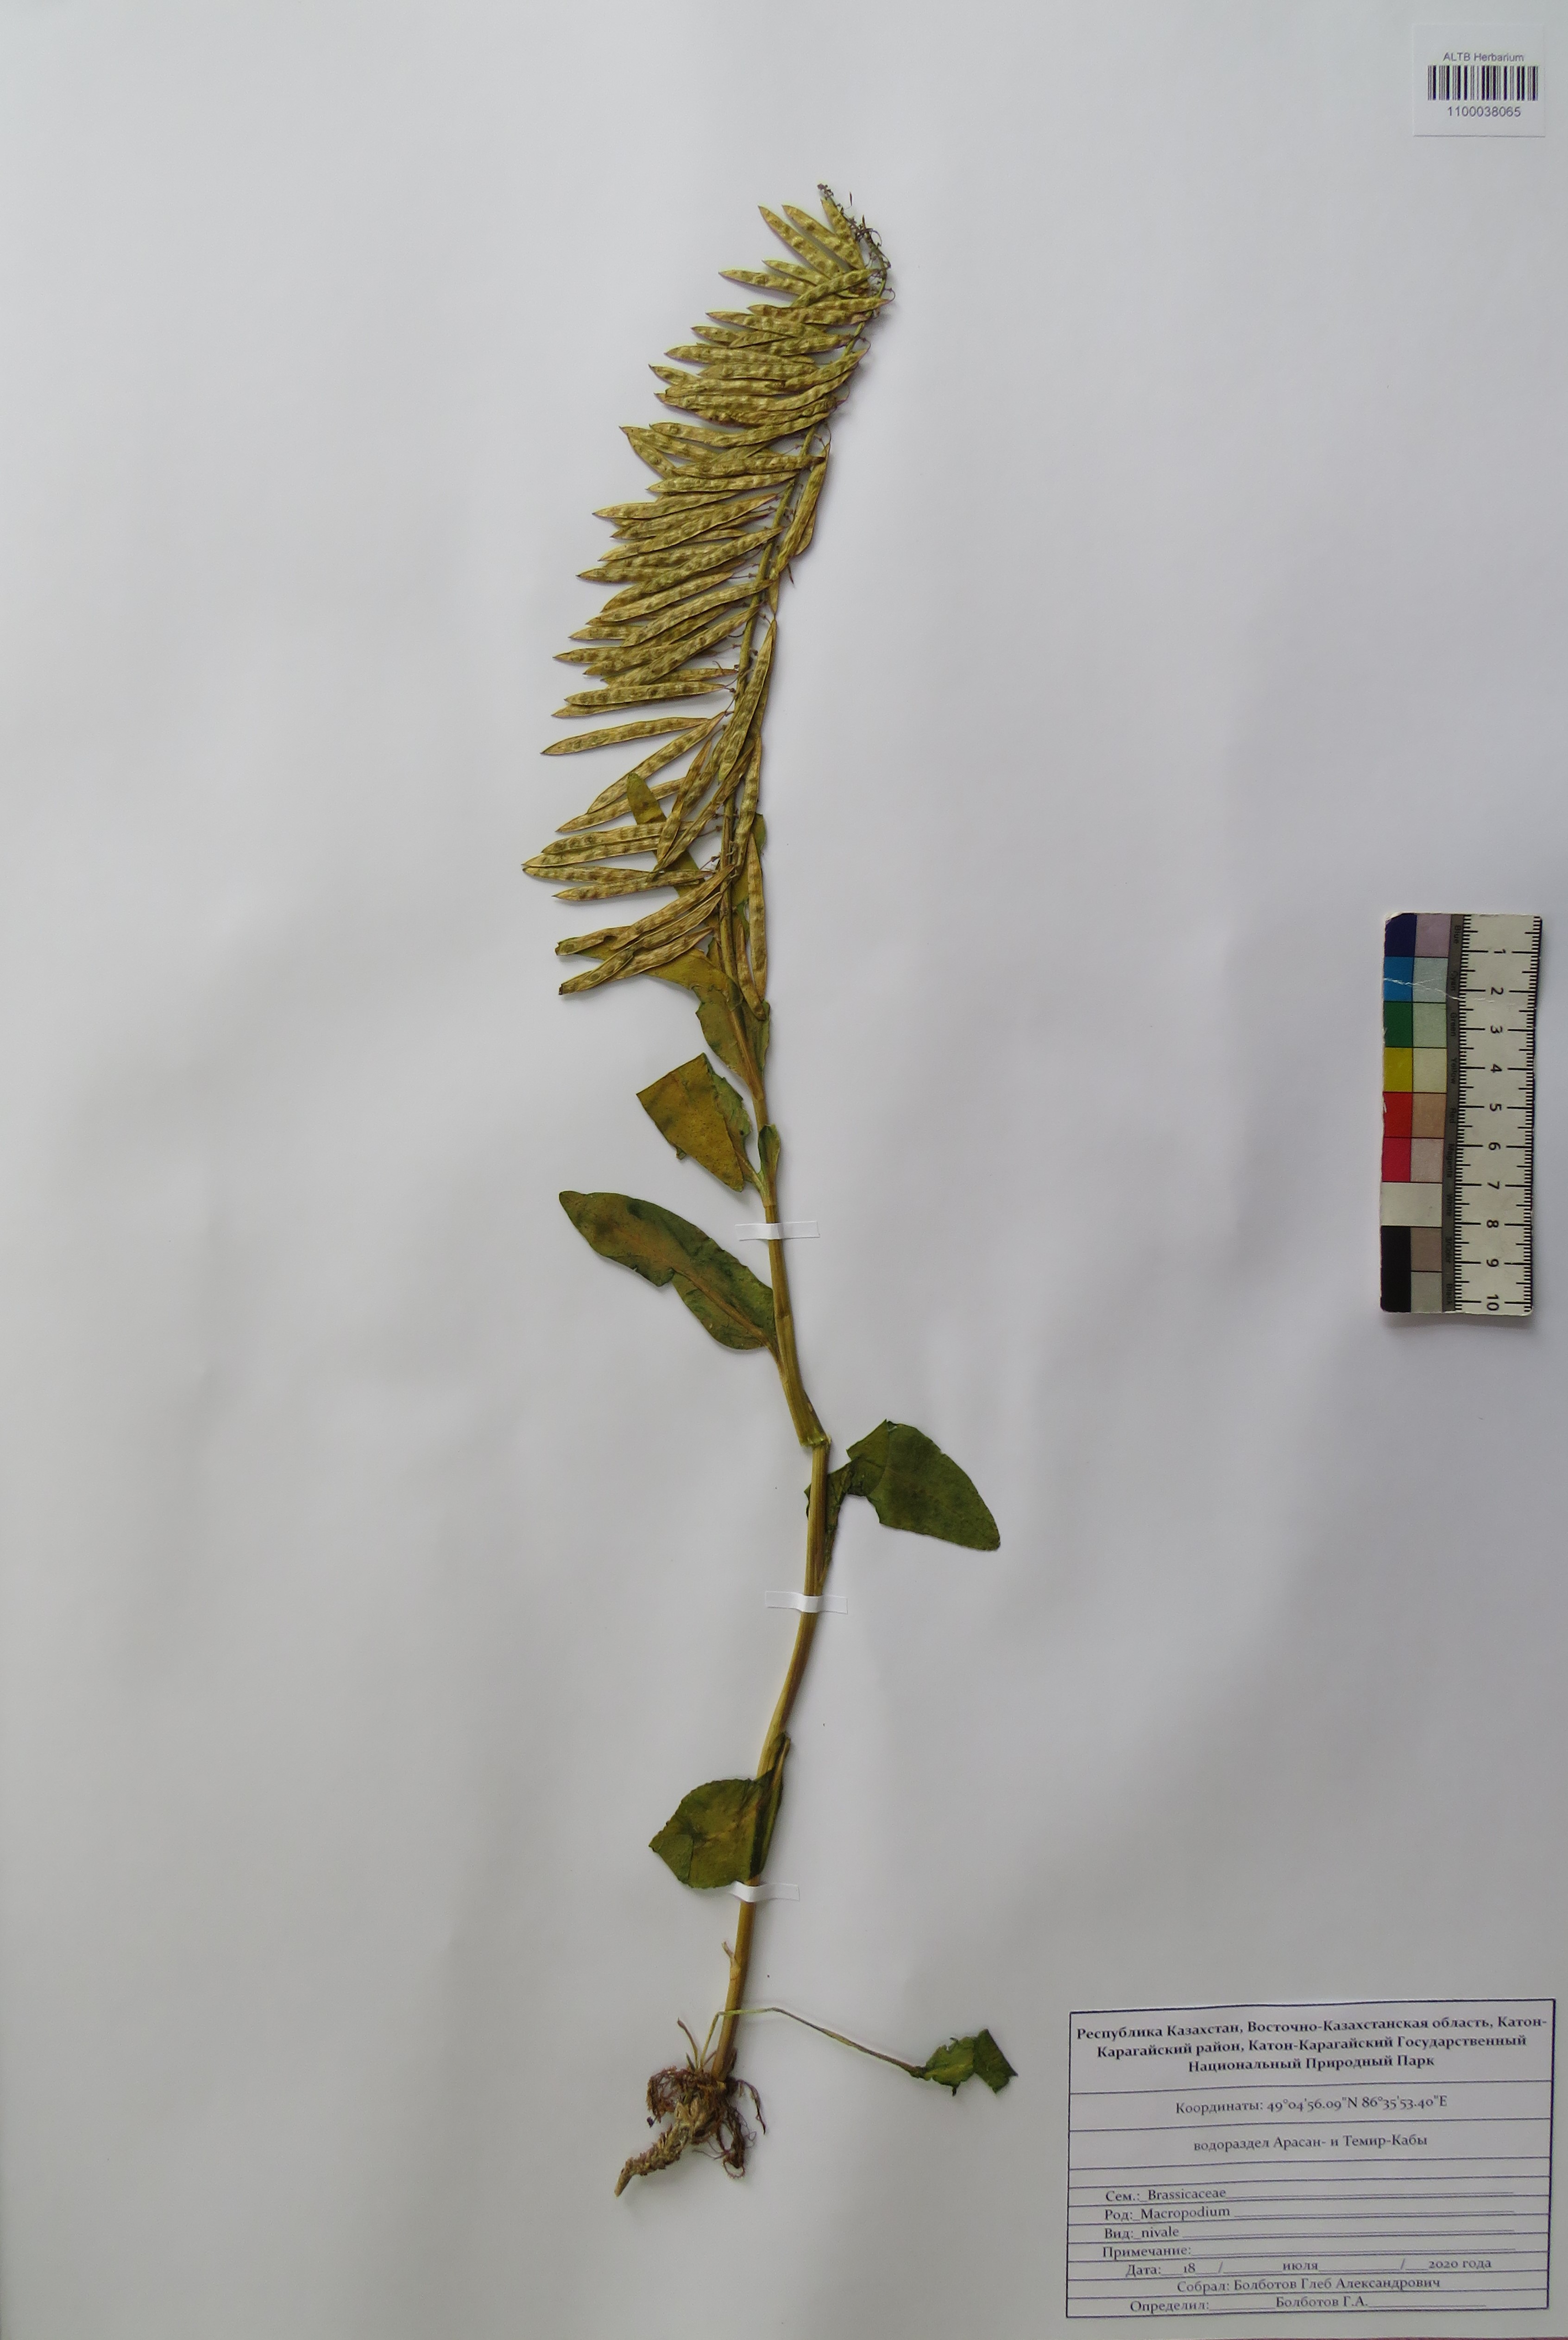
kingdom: Plantae
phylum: Tracheophyta
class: Magnoliopsida
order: Brassicales
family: Brassicaceae
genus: Macropodium
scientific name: Macropodium nivale
